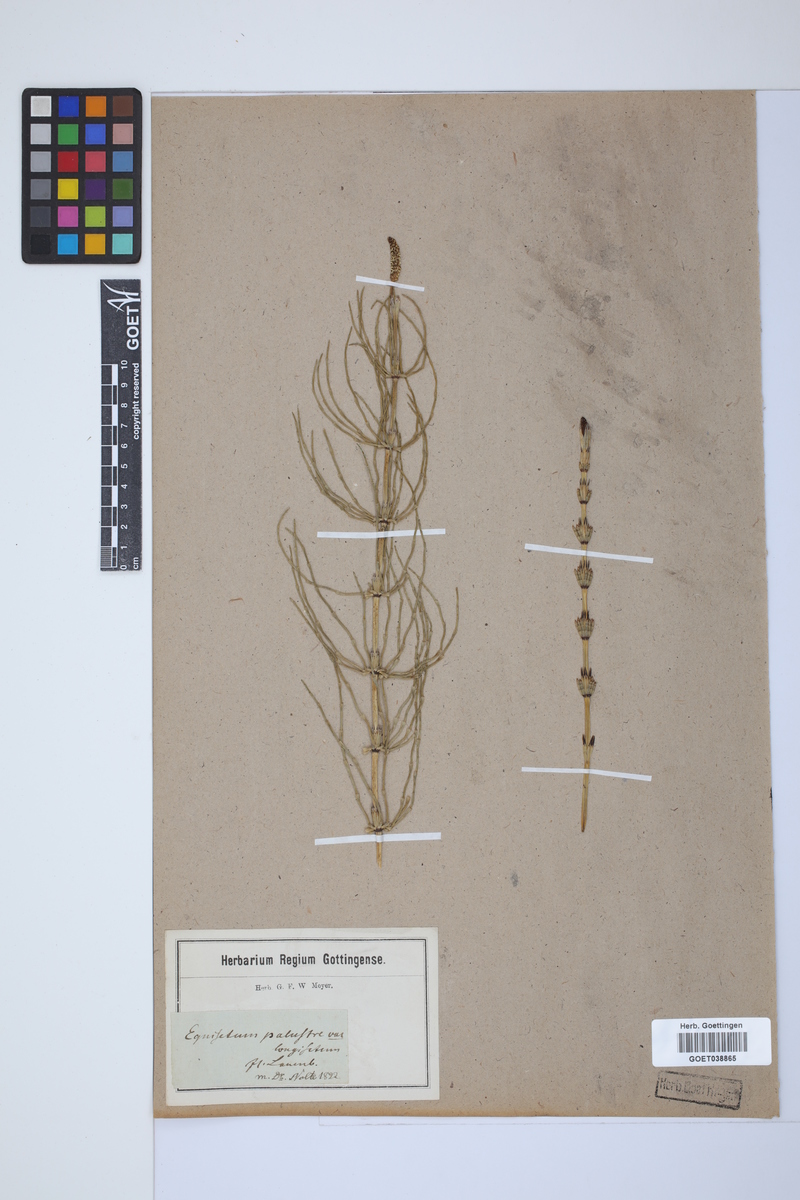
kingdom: Plantae
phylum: Tracheophyta
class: Polypodiopsida
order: Equisetales
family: Equisetaceae
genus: Equisetum
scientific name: Equisetum palustre
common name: Marsh horsetail
